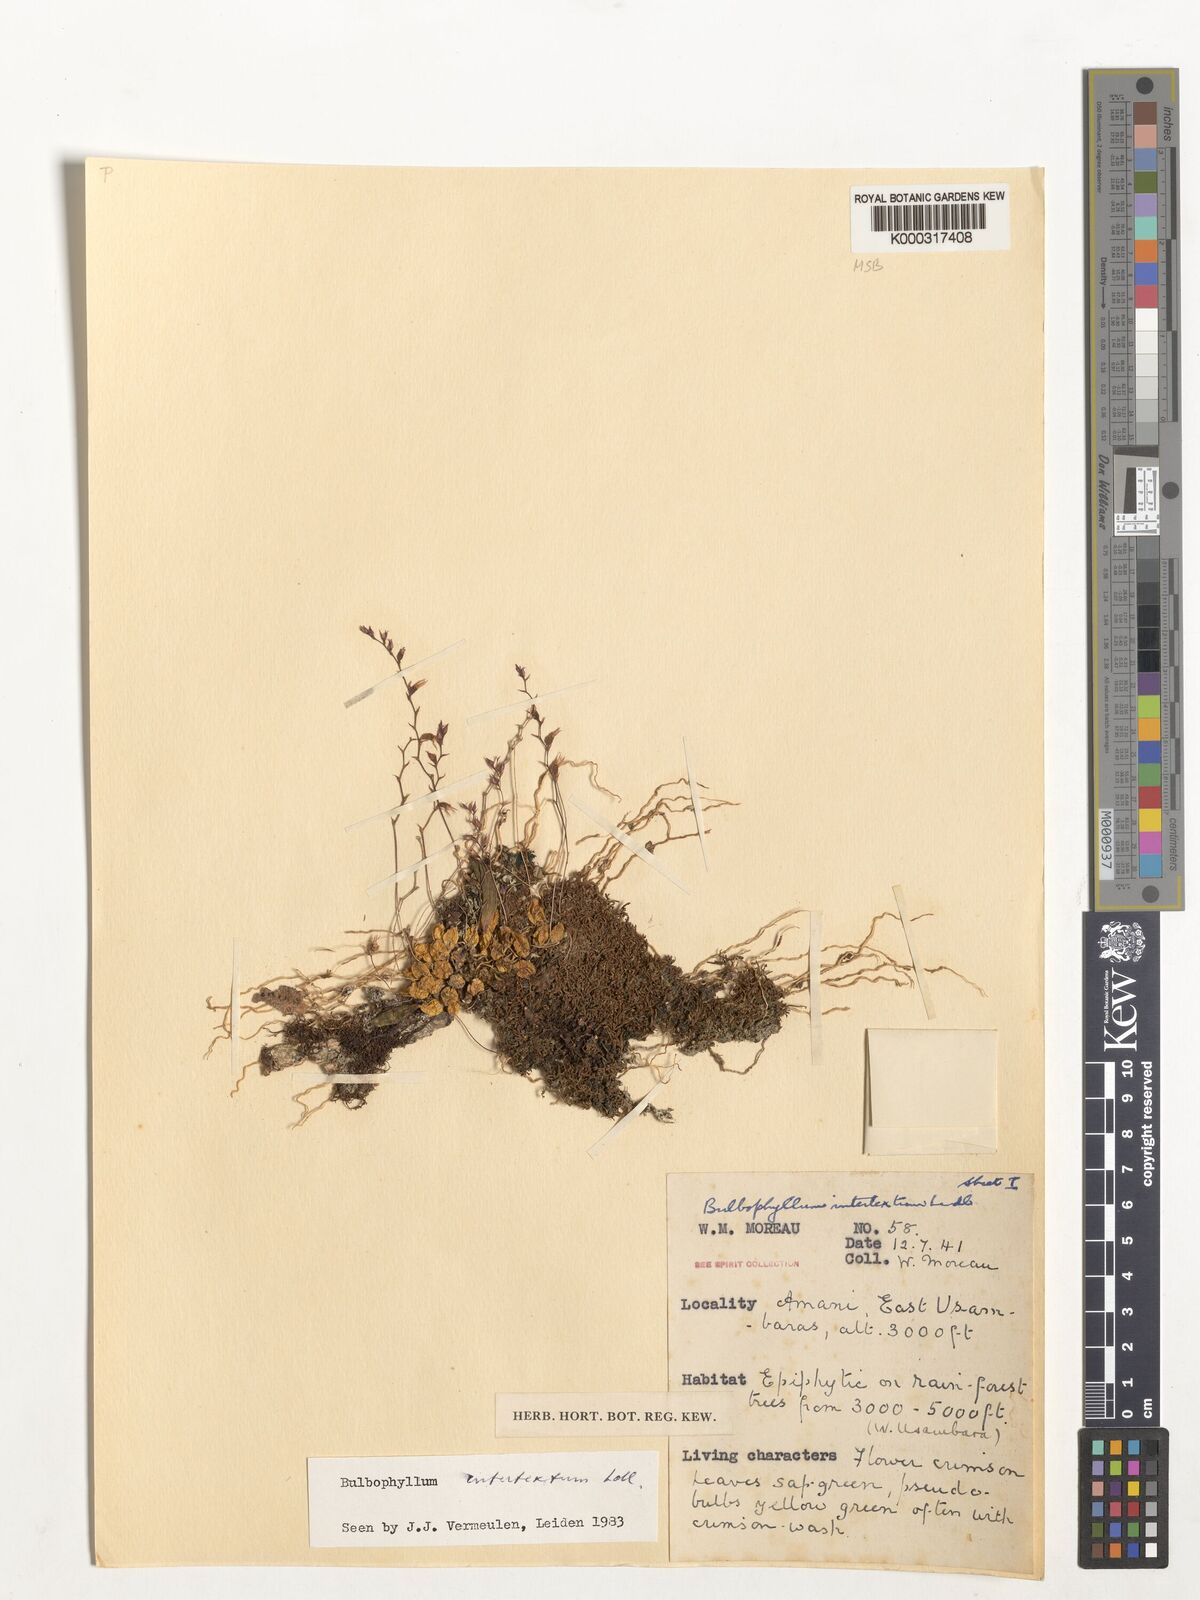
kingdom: Plantae
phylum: Tracheophyta
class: Liliopsida
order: Asparagales
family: Orchidaceae
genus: Bulbophyllum
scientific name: Bulbophyllum intertextum
